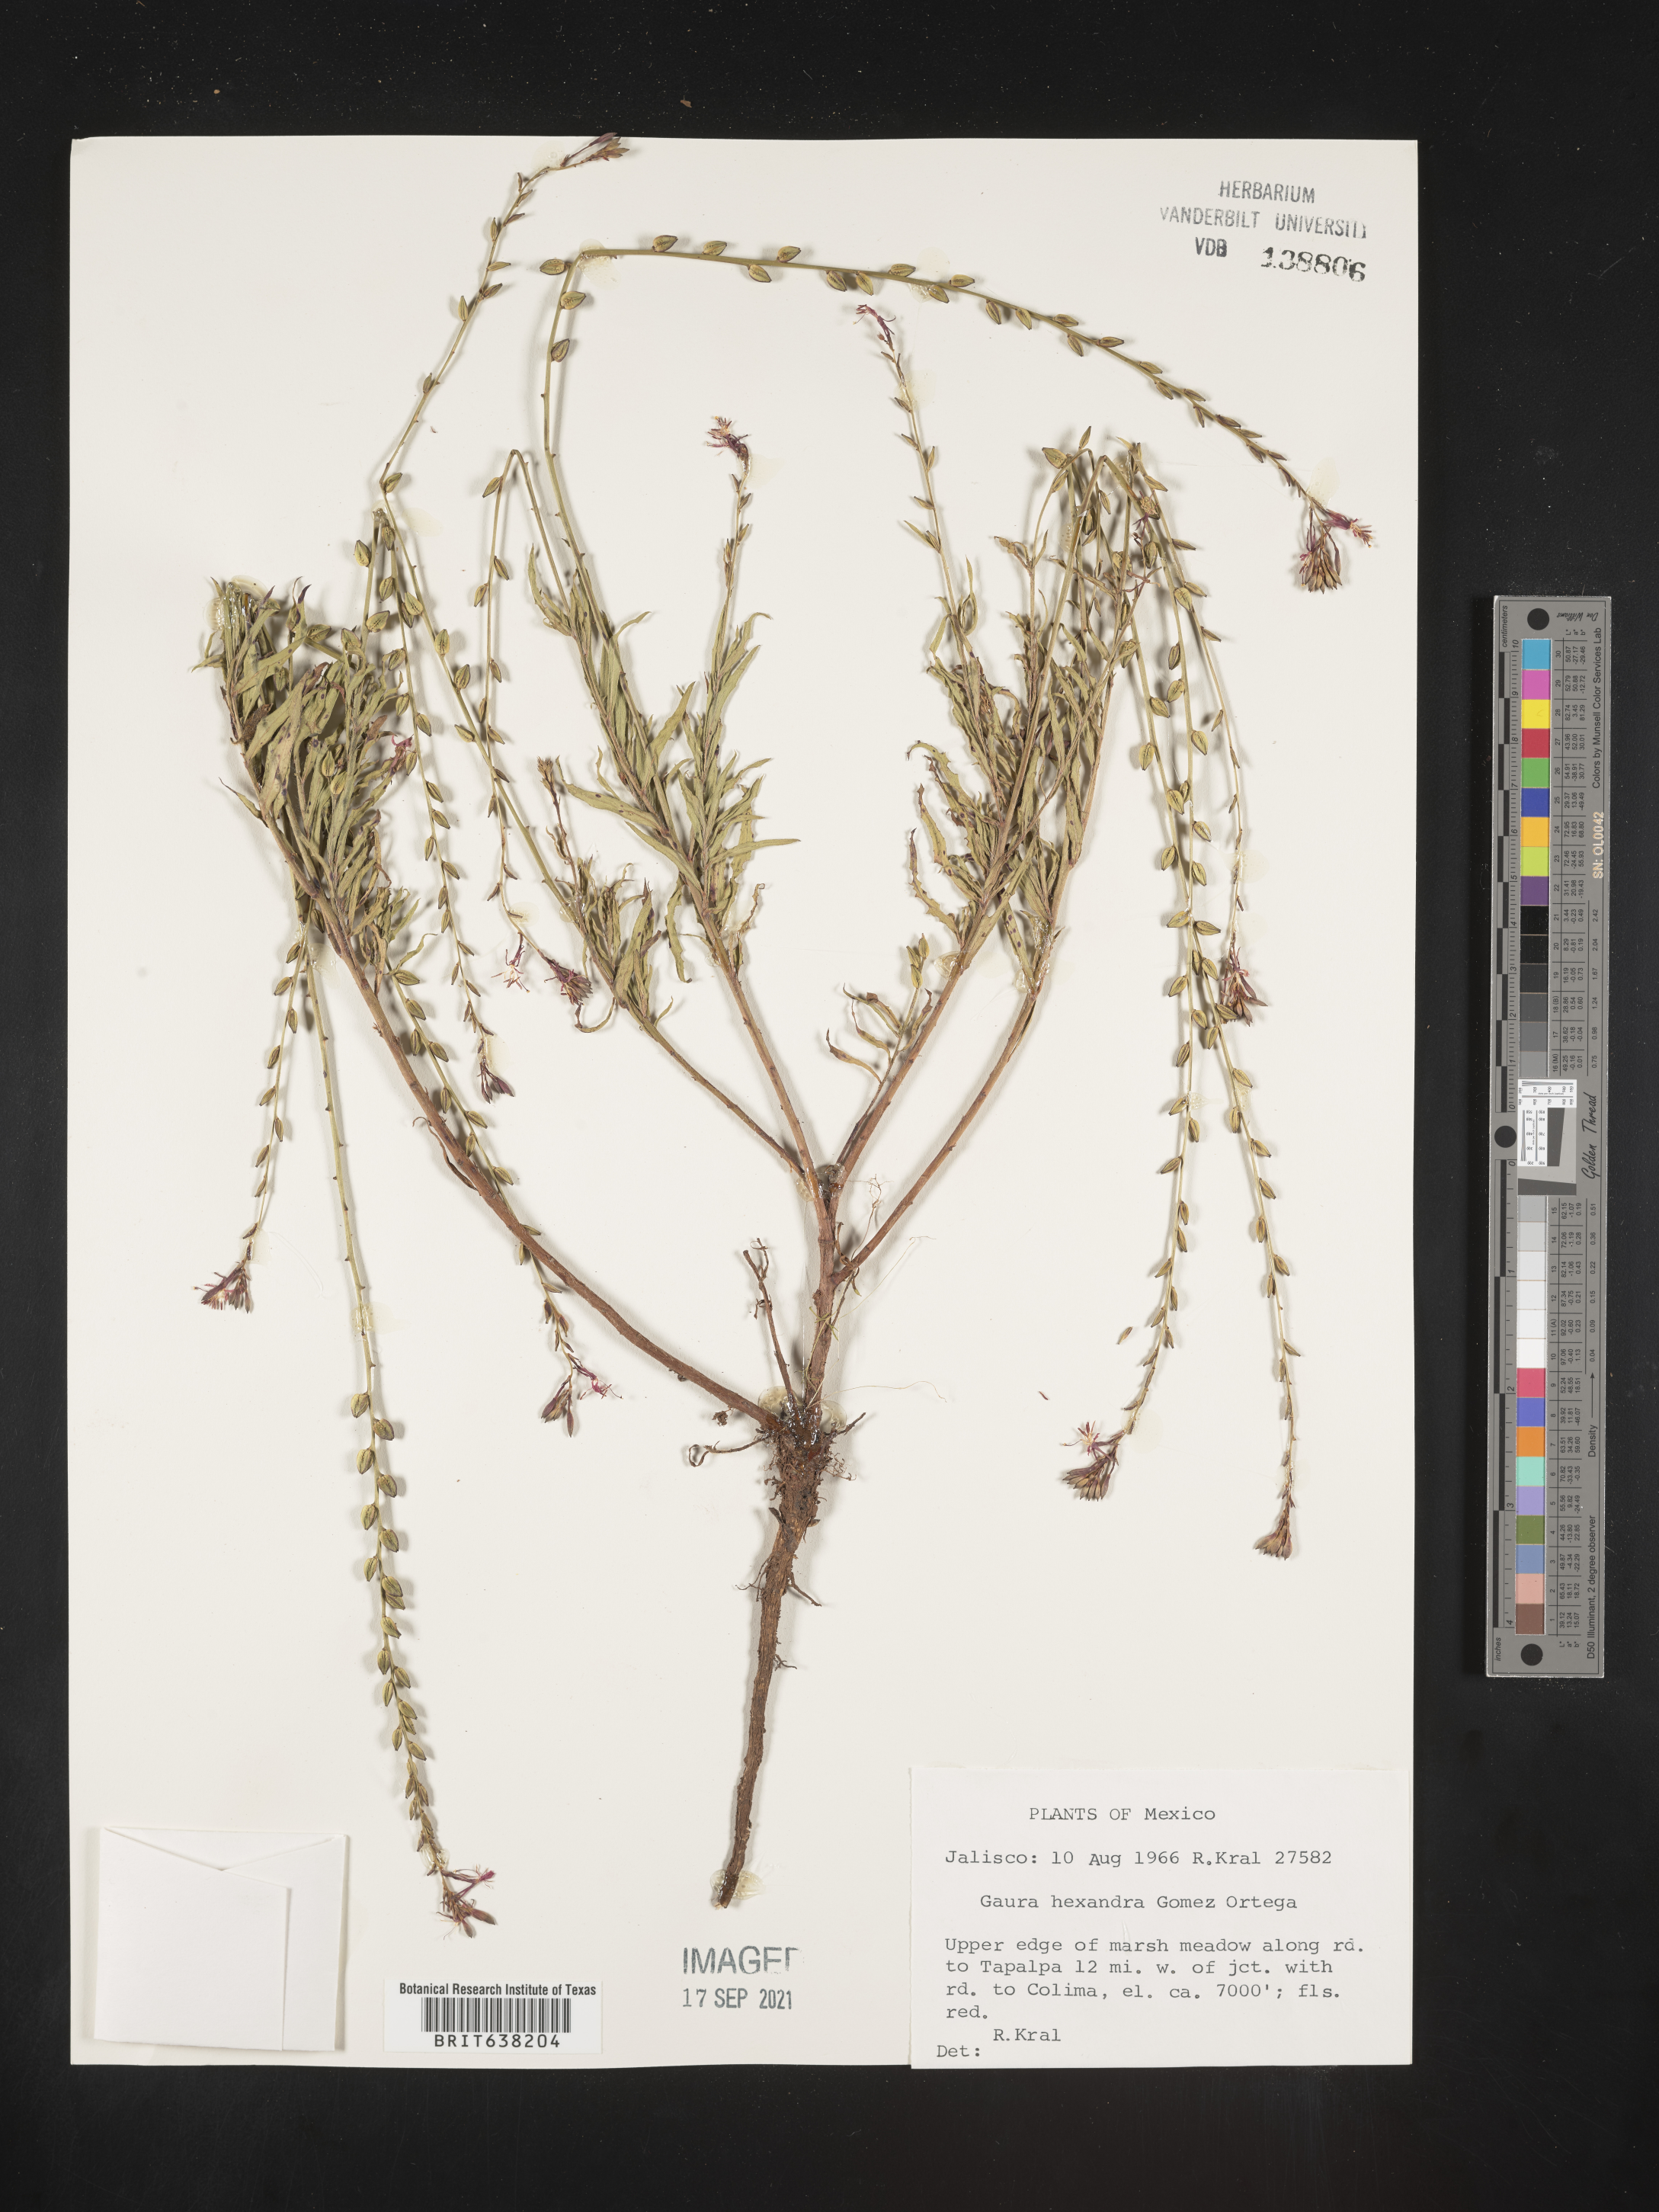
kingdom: Plantae
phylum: Tracheophyta
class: Magnoliopsida
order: Myrtales
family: Onagraceae
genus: Oenothera
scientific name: Oenothera
